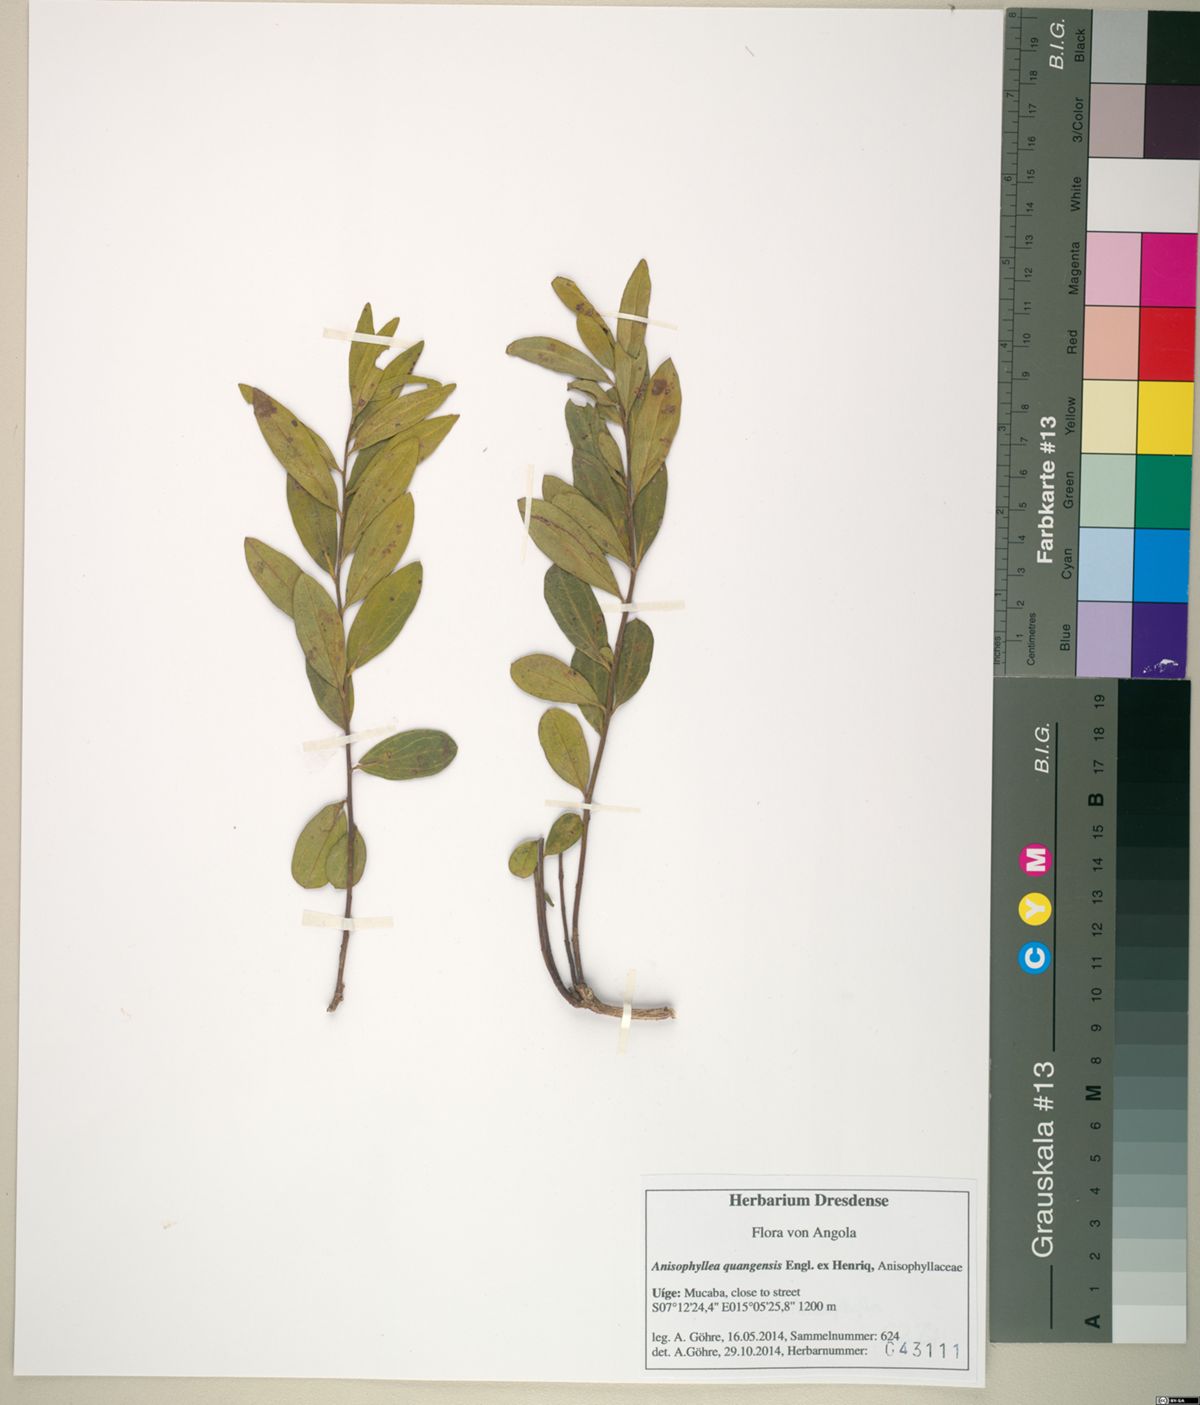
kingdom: Plantae
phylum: Tracheophyta
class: Magnoliopsida
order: Cucurbitales
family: Anisophylleaceae
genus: Anisophyllea
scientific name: Anisophyllea quangensis
